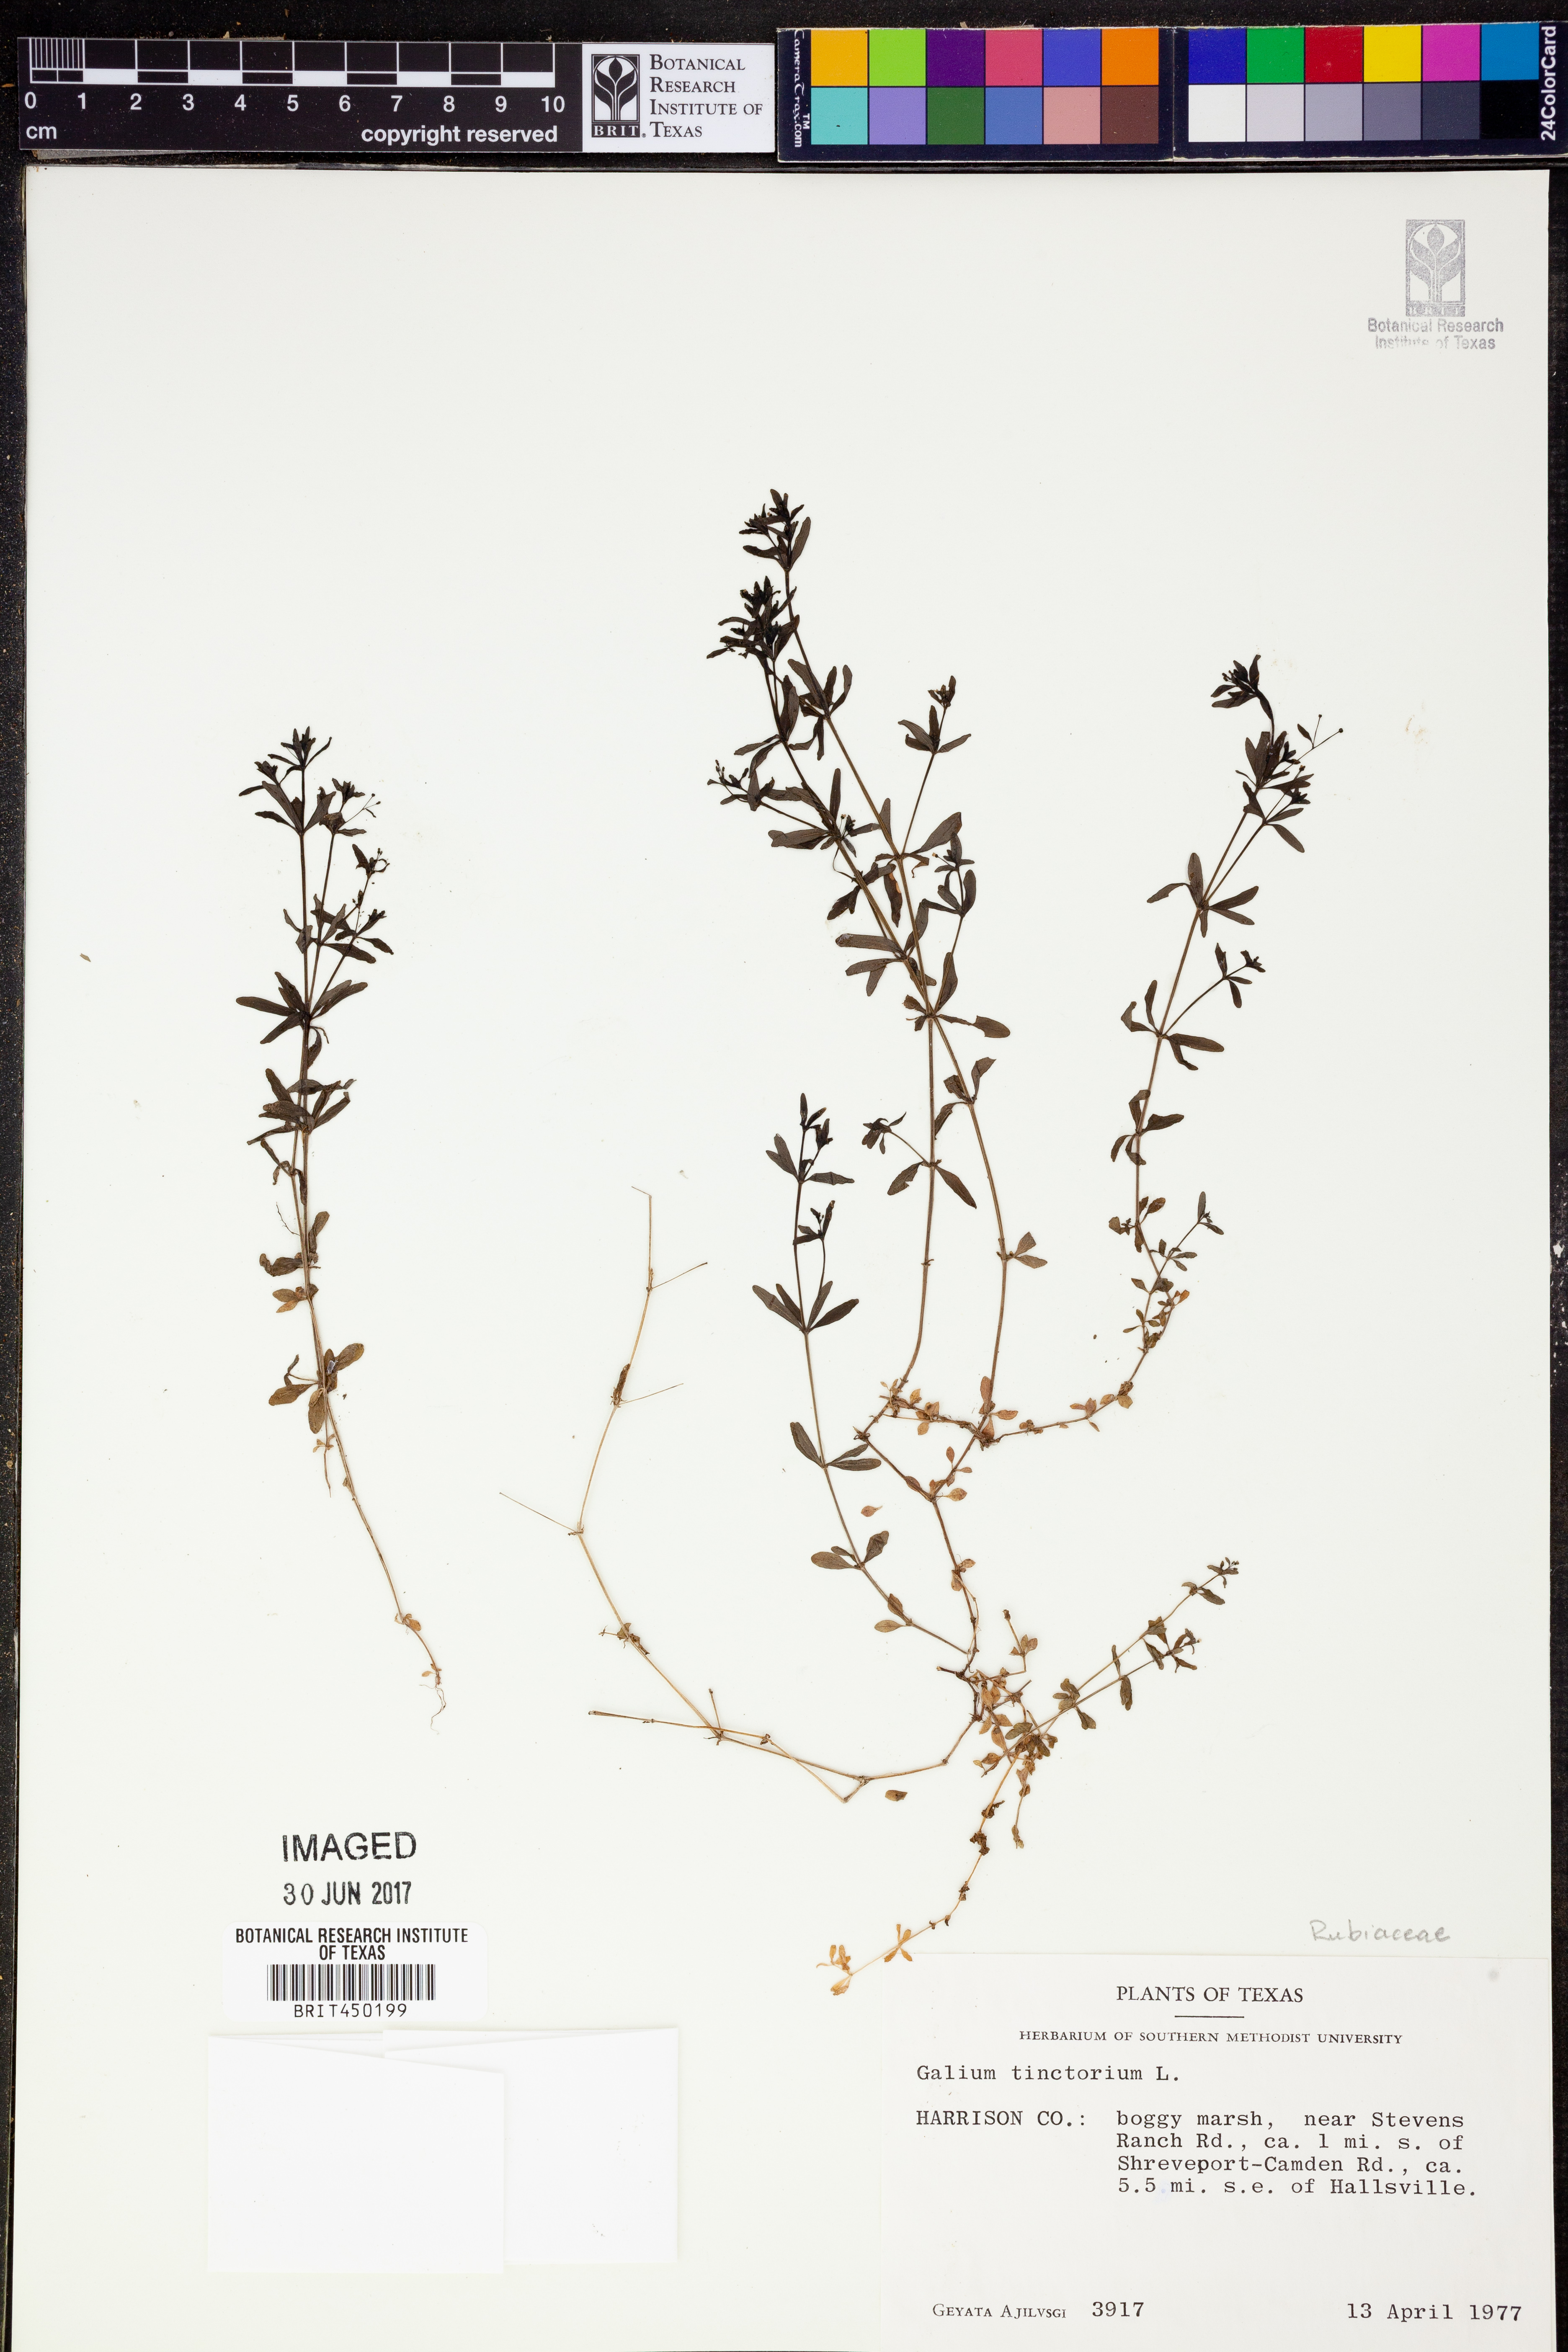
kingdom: Plantae
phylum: Tracheophyta
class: Magnoliopsida
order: Gentianales
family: Rubiaceae
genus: Asperula
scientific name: Asperula tinctoria
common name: Dyer's woodruff
